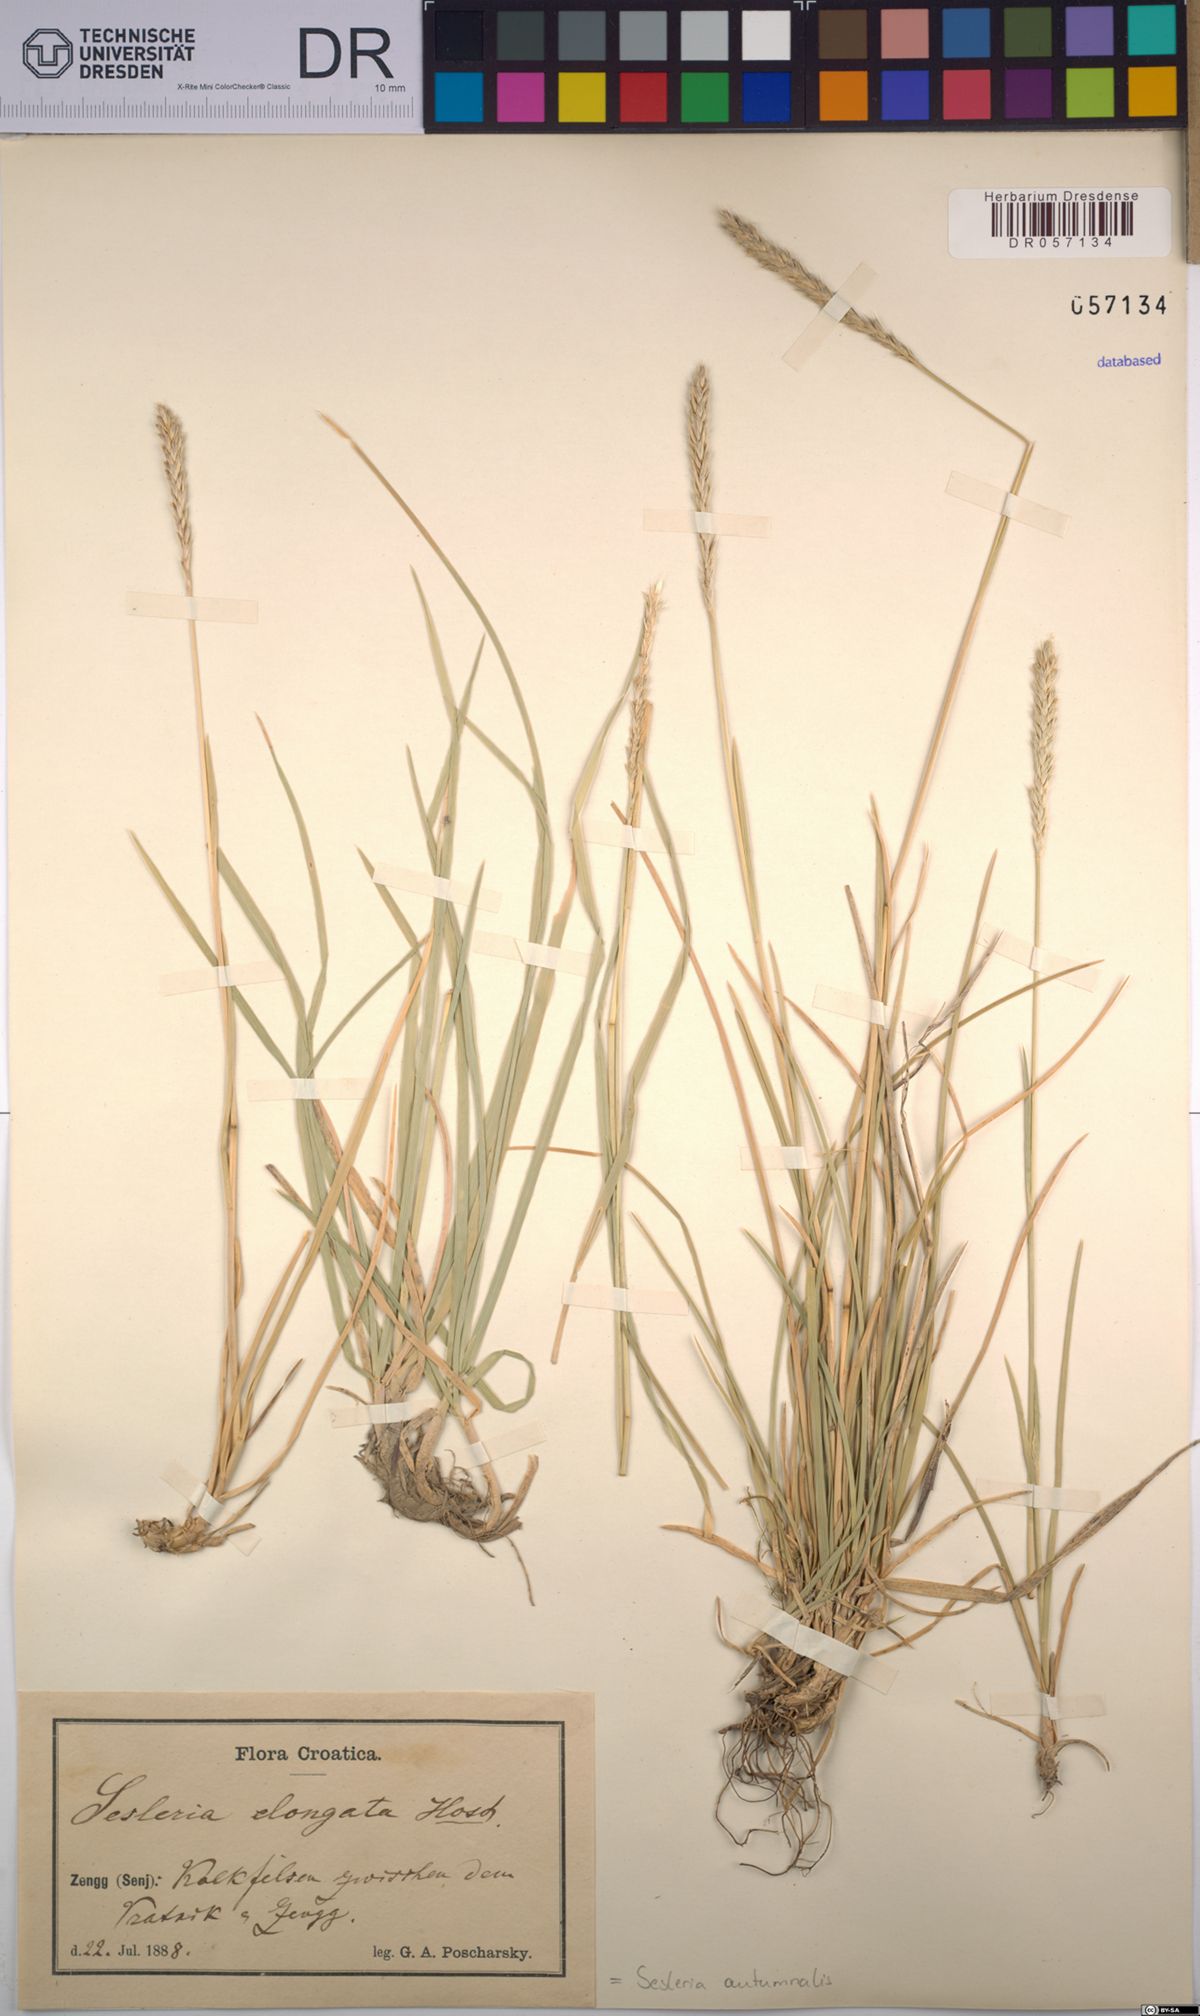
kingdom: Plantae
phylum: Tracheophyta
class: Liliopsida
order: Poales
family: Poaceae
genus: Sesleria
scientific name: Sesleria autumnalis
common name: Autumn moor grass
